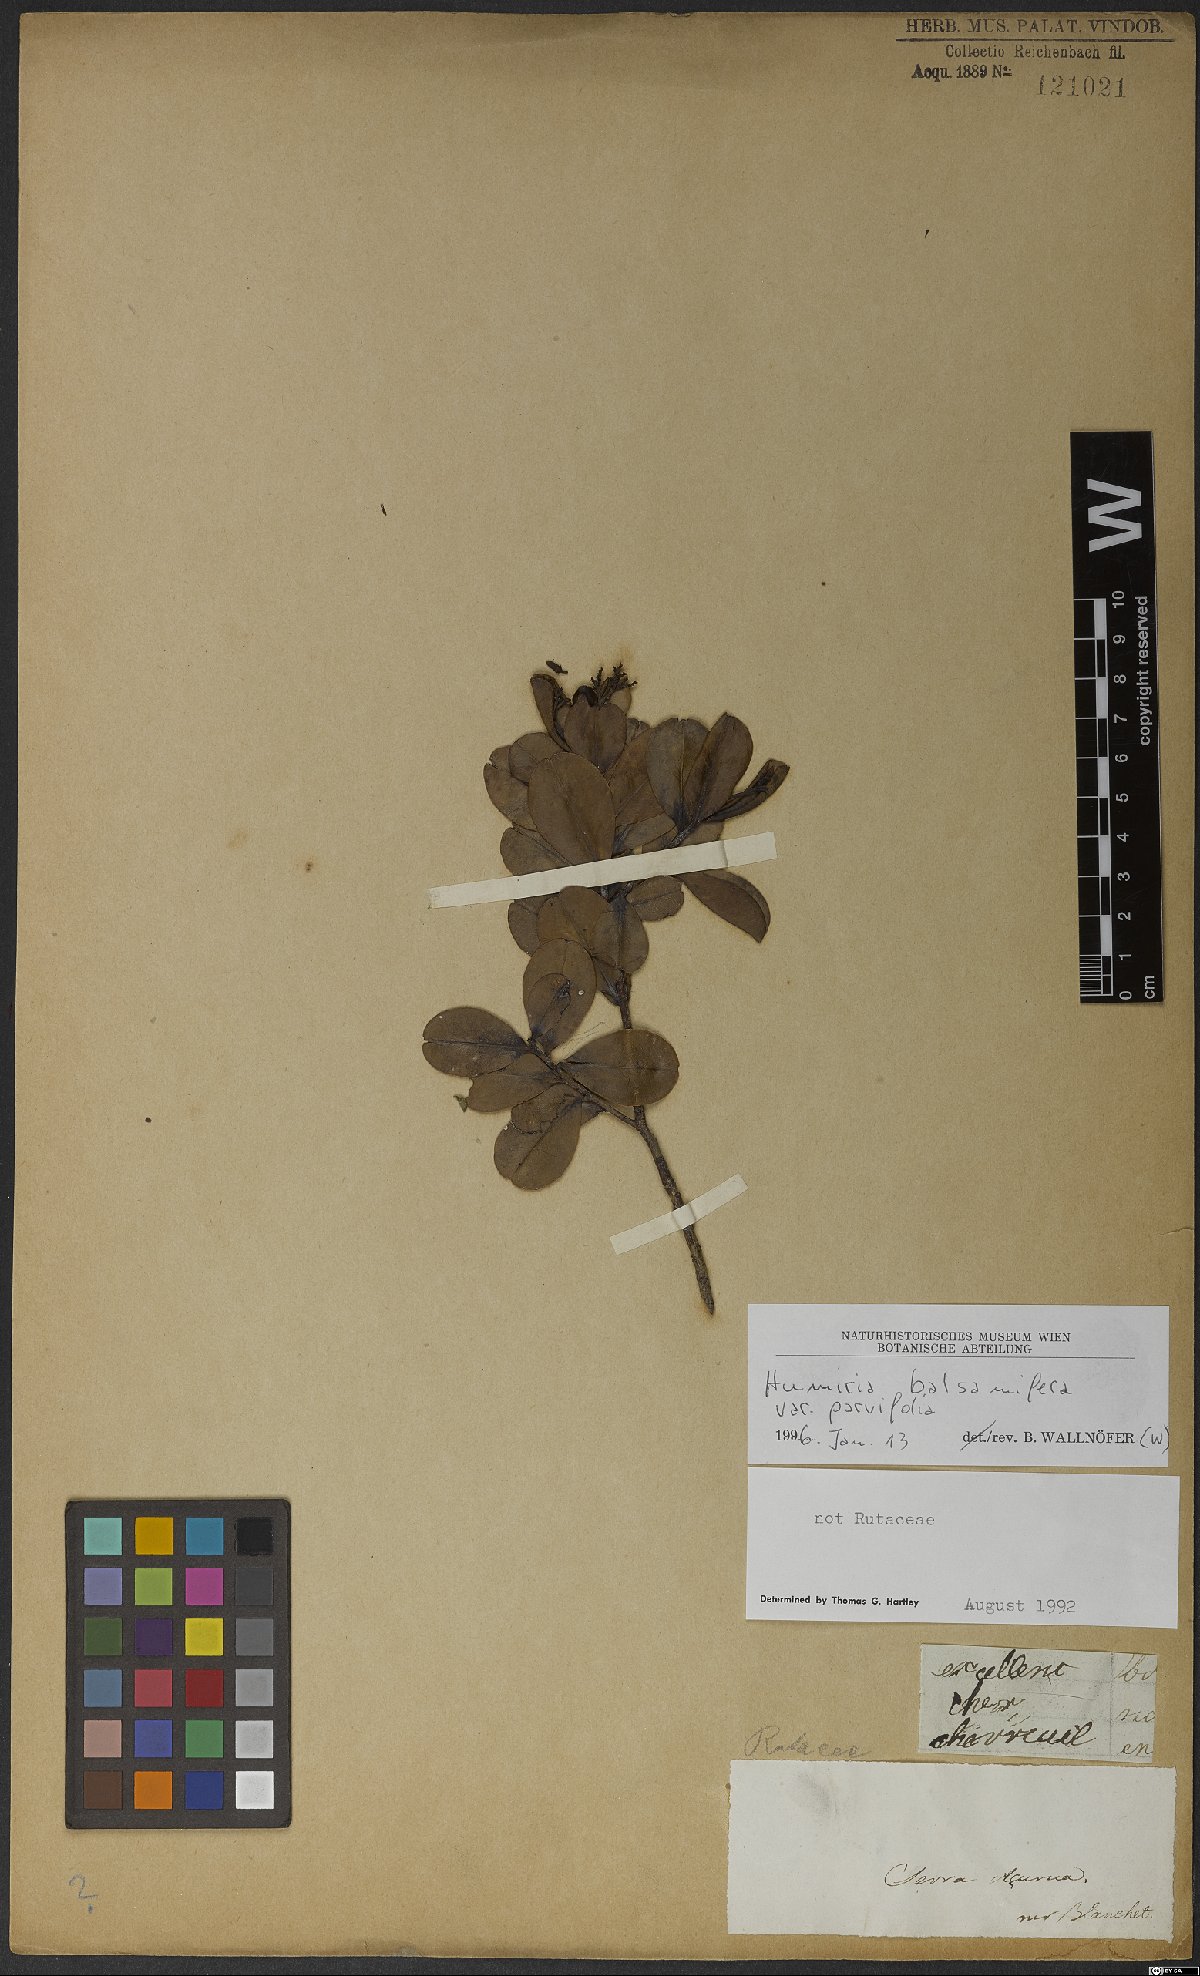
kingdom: Plantae
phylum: Tracheophyta
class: Magnoliopsida
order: Malpighiales
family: Humiriaceae
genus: Humiria
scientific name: Humiria balsamifera
